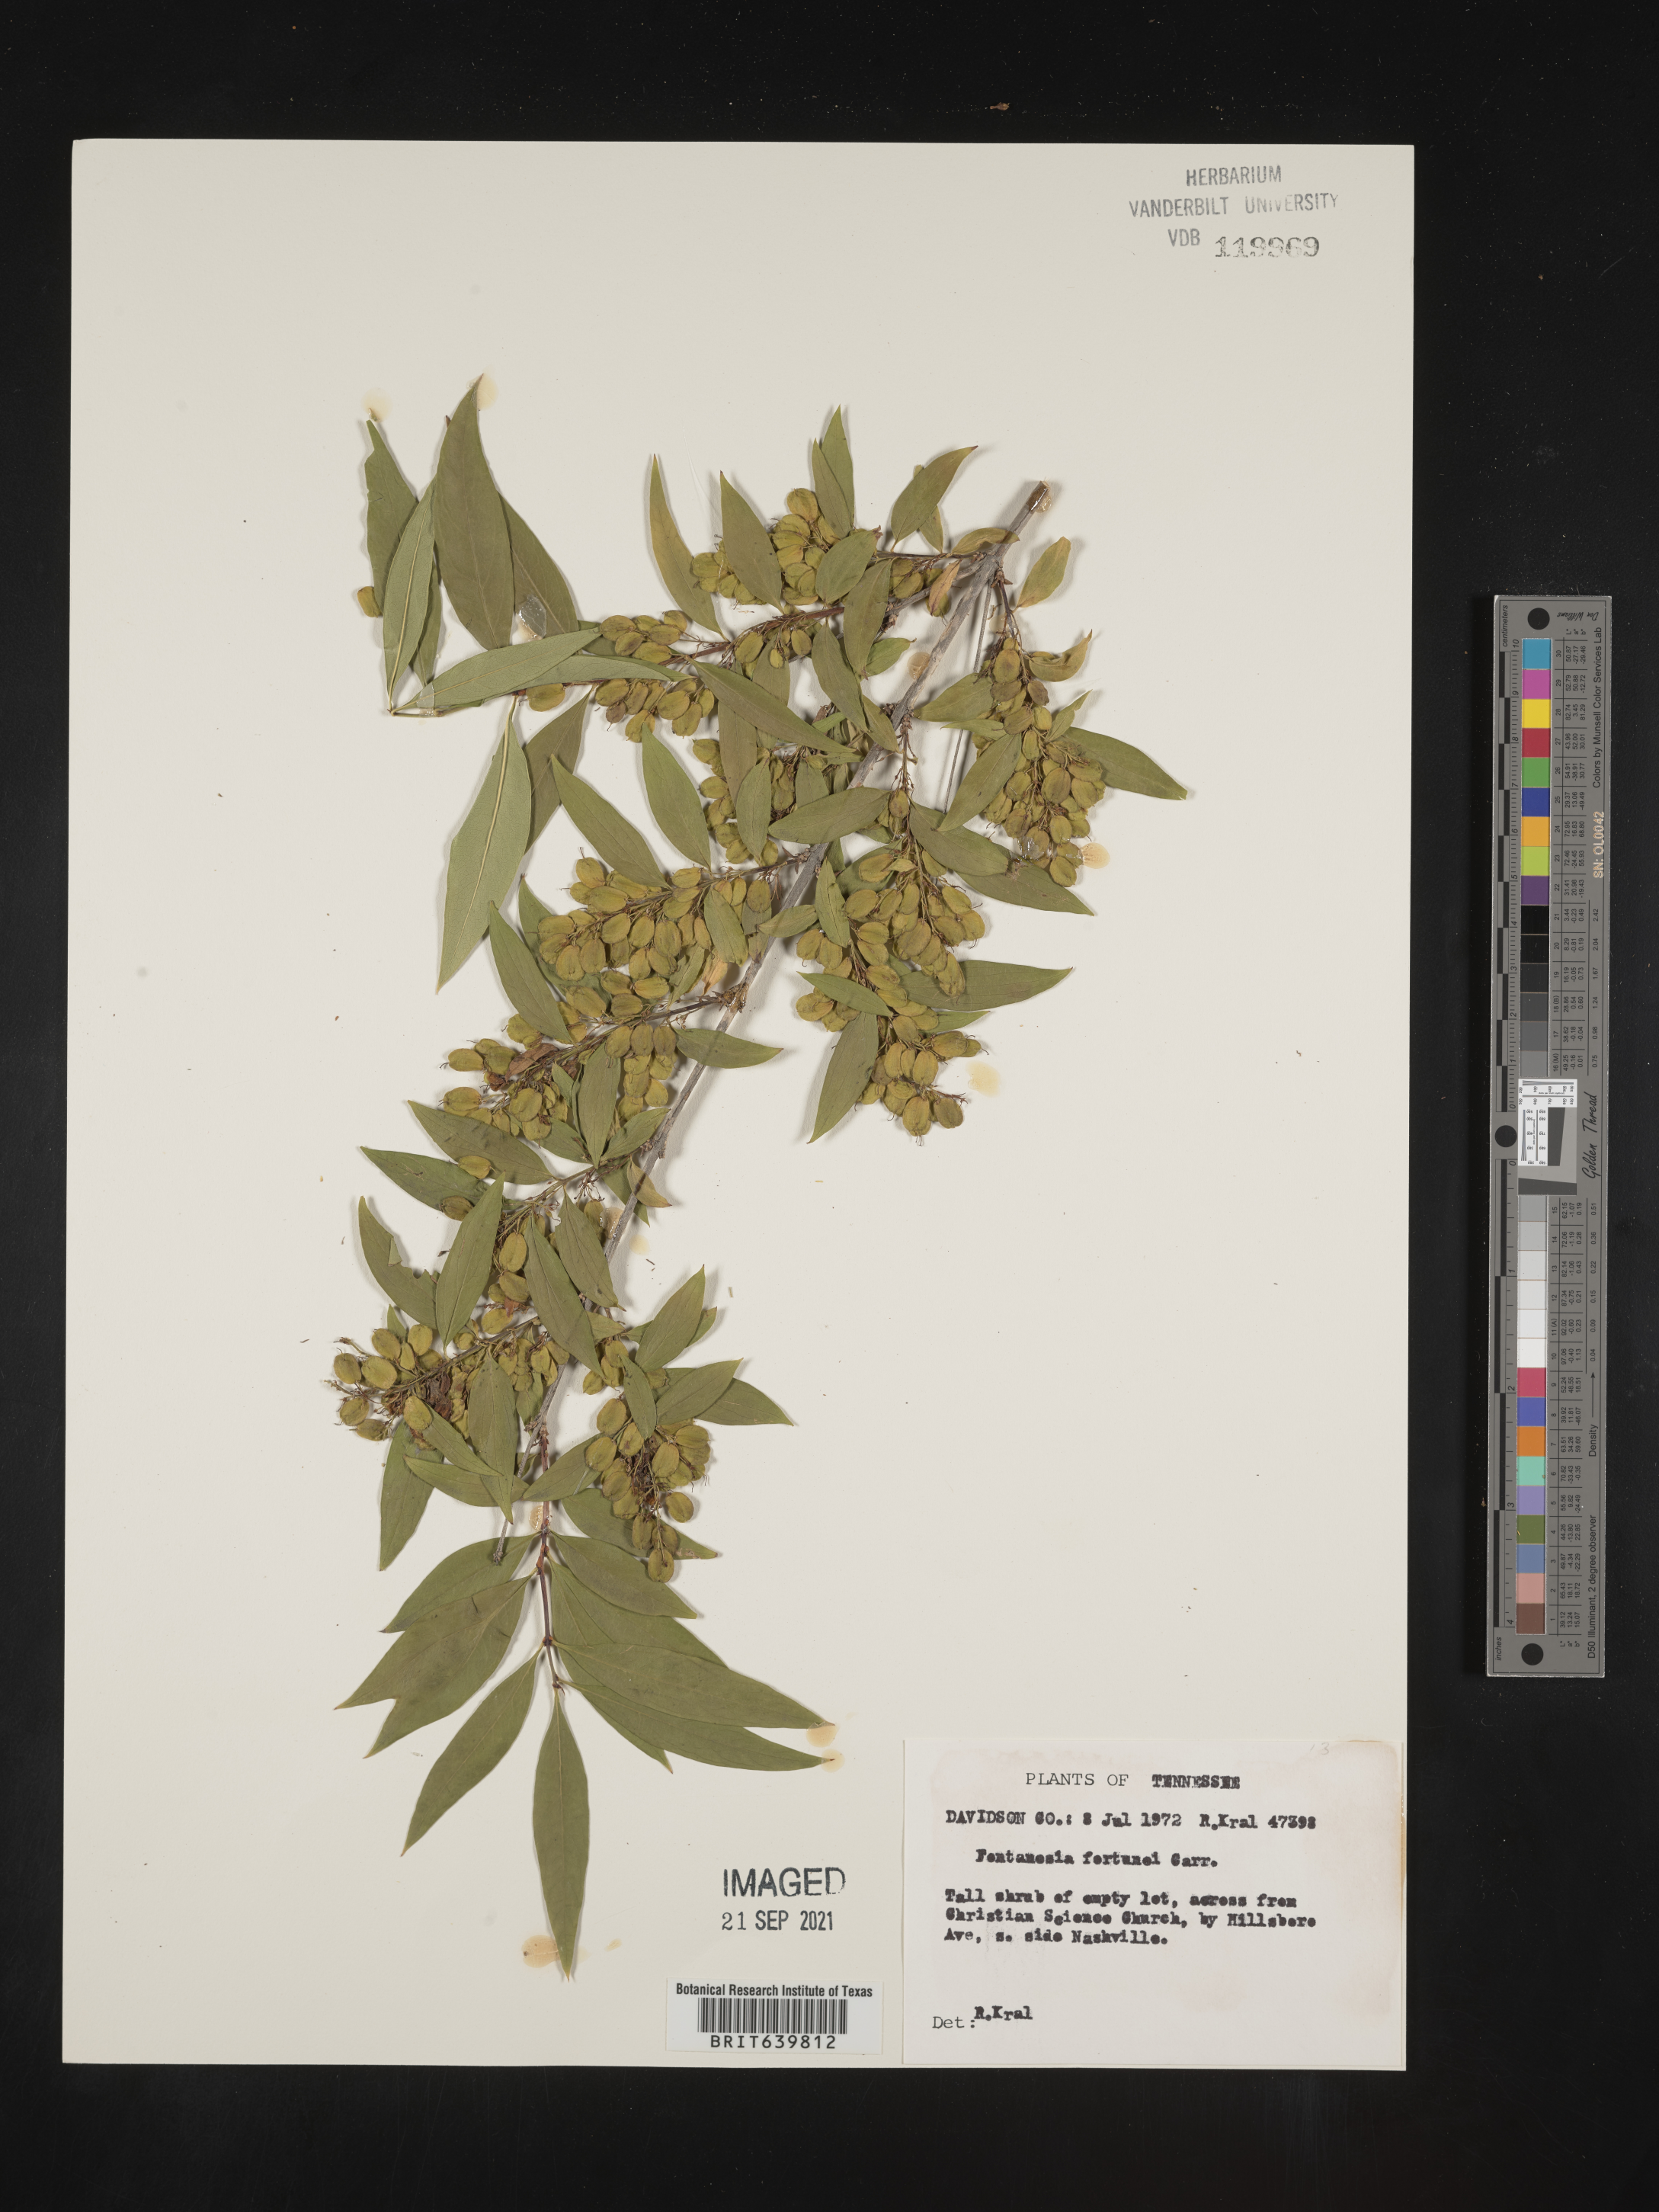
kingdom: Plantae
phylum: Tracheophyta
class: Magnoliopsida
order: Lamiales
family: Oleaceae
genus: Fontanesia
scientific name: Fontanesia
